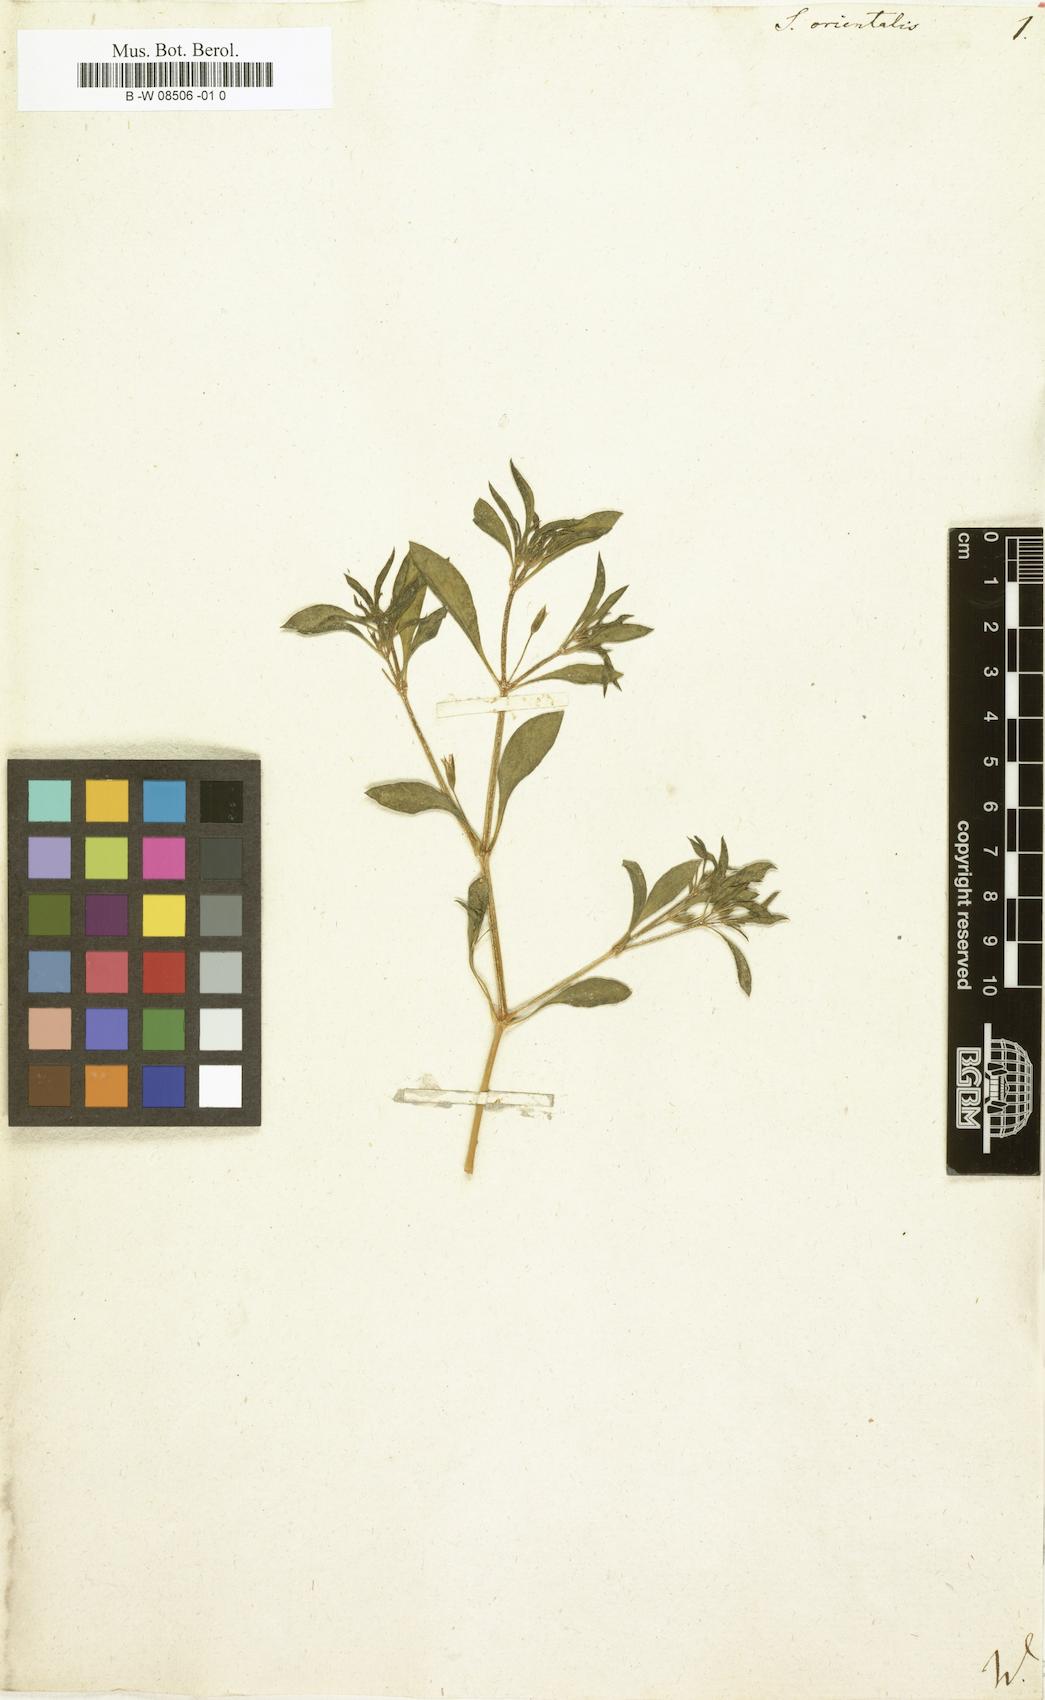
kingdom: Plantae
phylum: Tracheophyta
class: Magnoliopsida
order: Caryophyllales
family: Caryophyllaceae
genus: Saponaria
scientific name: Saponaria orientalis
